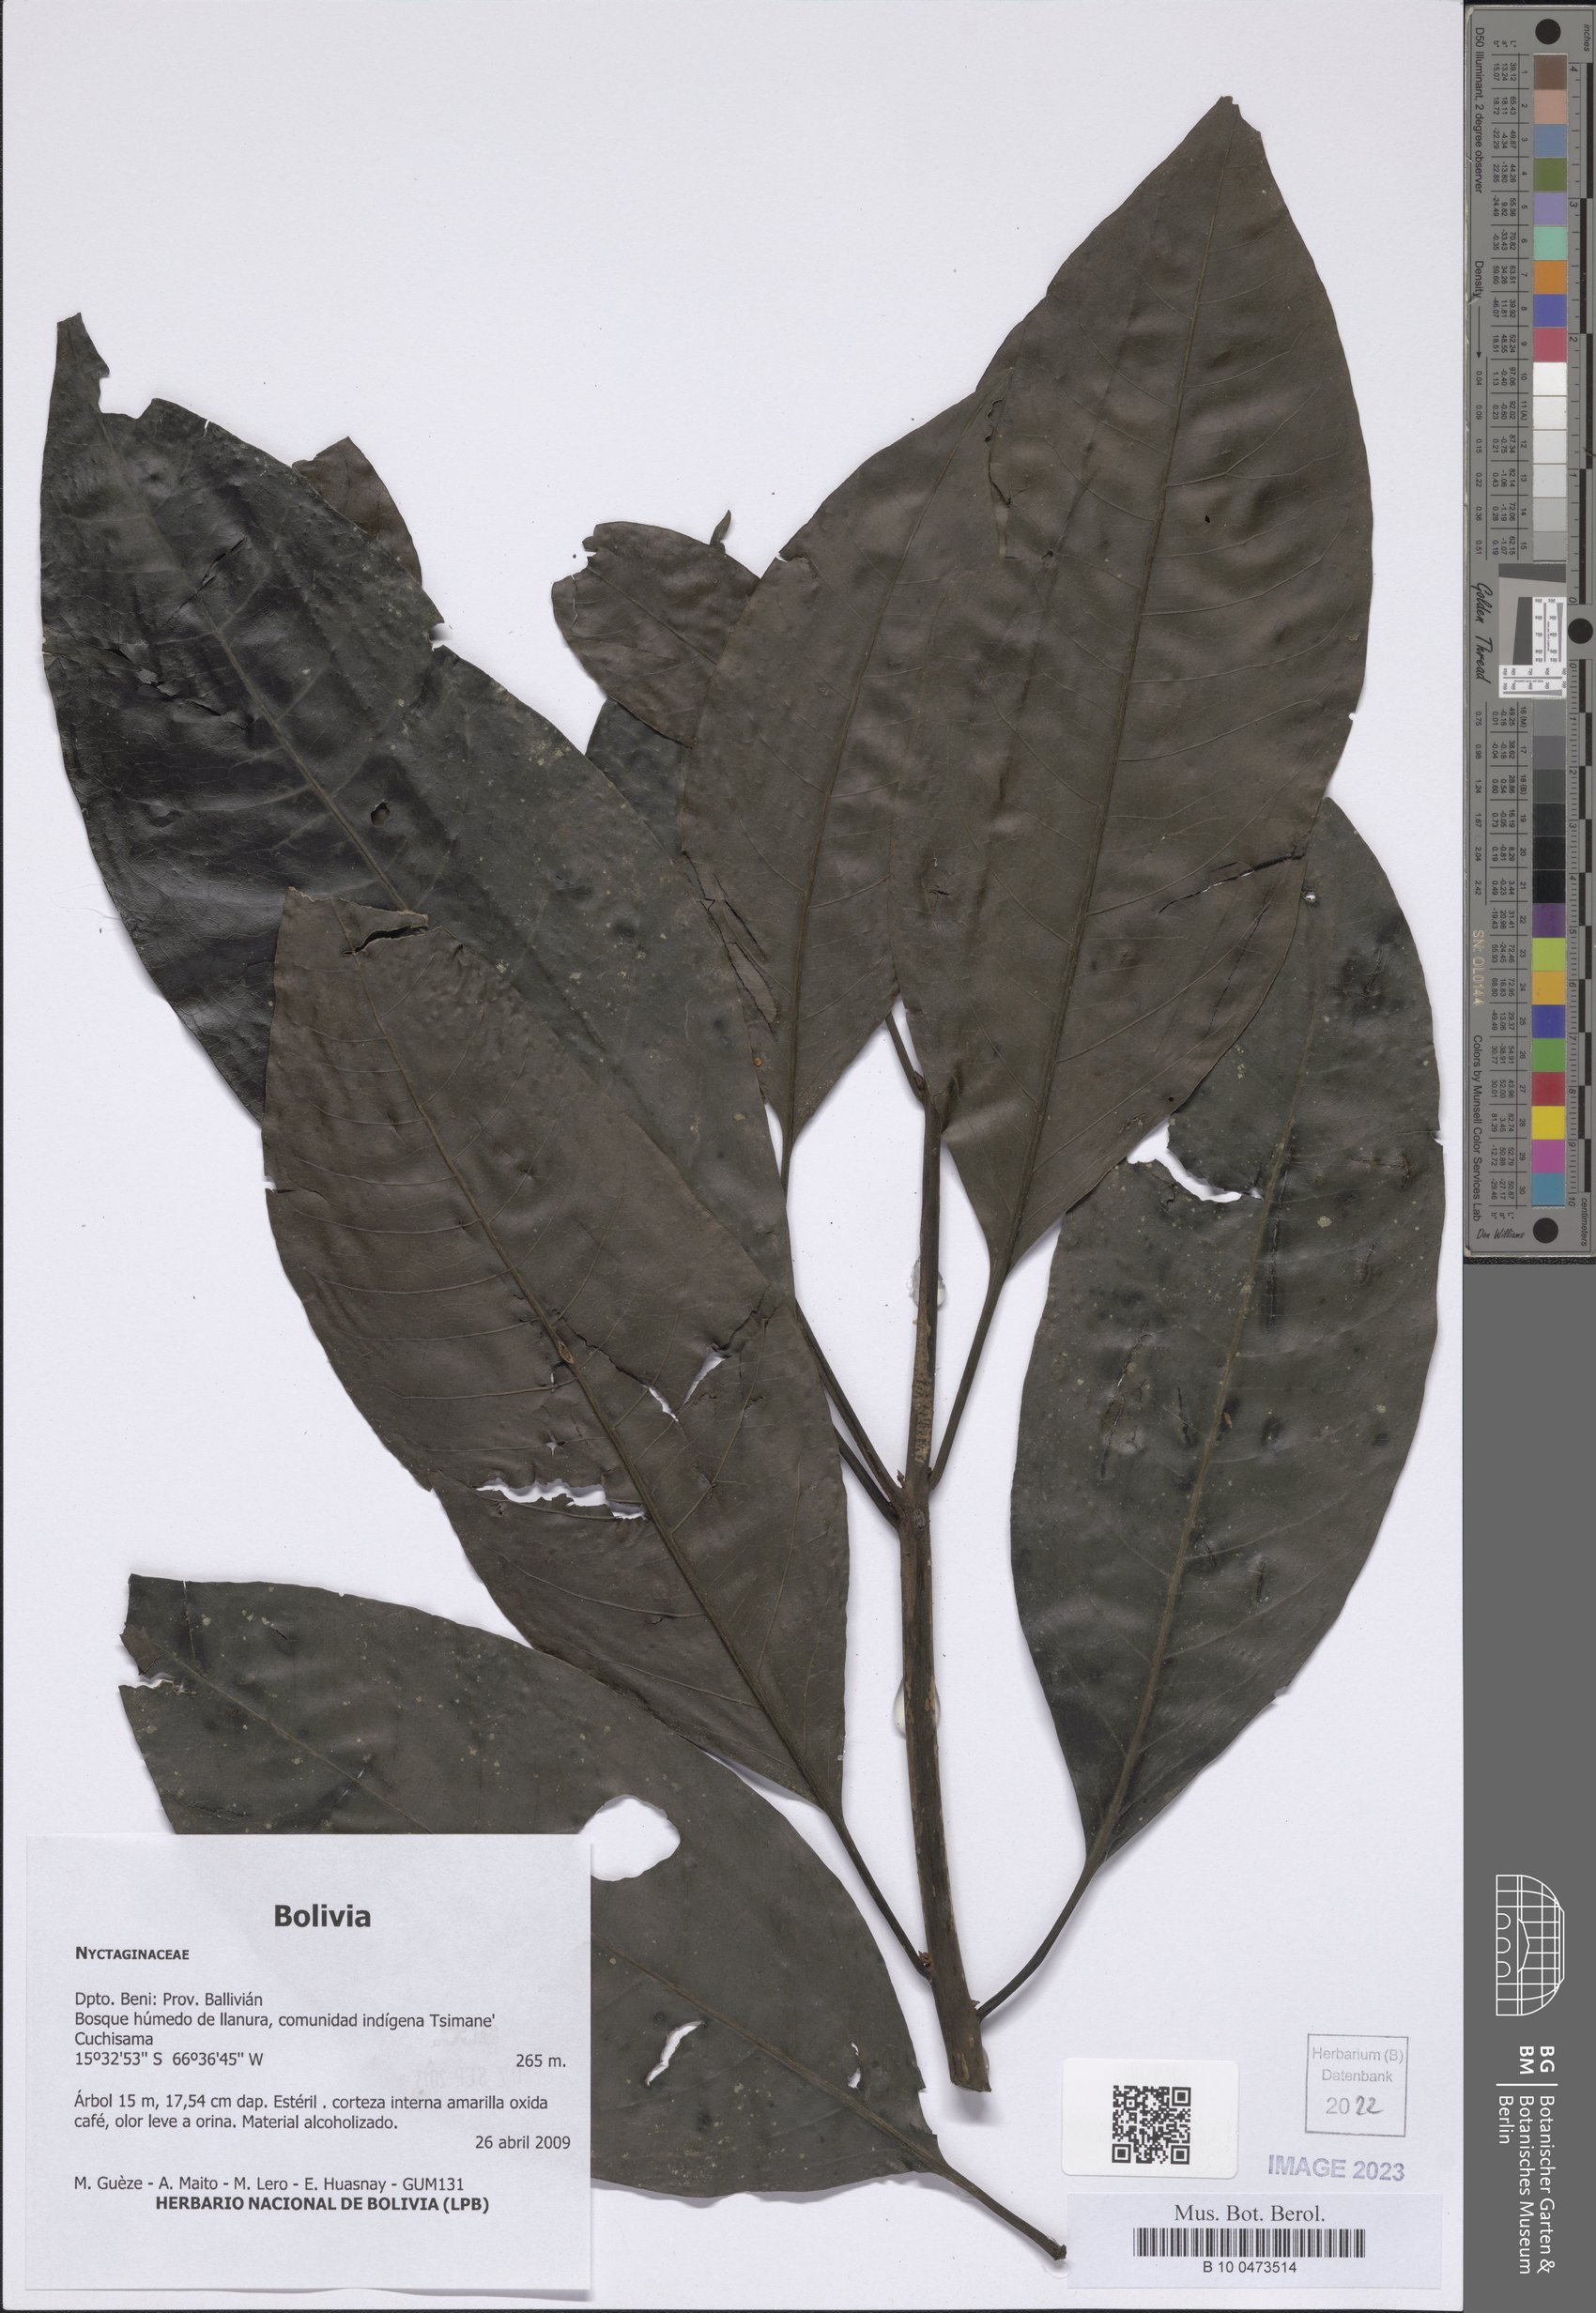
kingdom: Plantae
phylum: Tracheophyta
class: Magnoliopsida
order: Caryophyllales
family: Nyctaginaceae
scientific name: Nyctaginaceae
